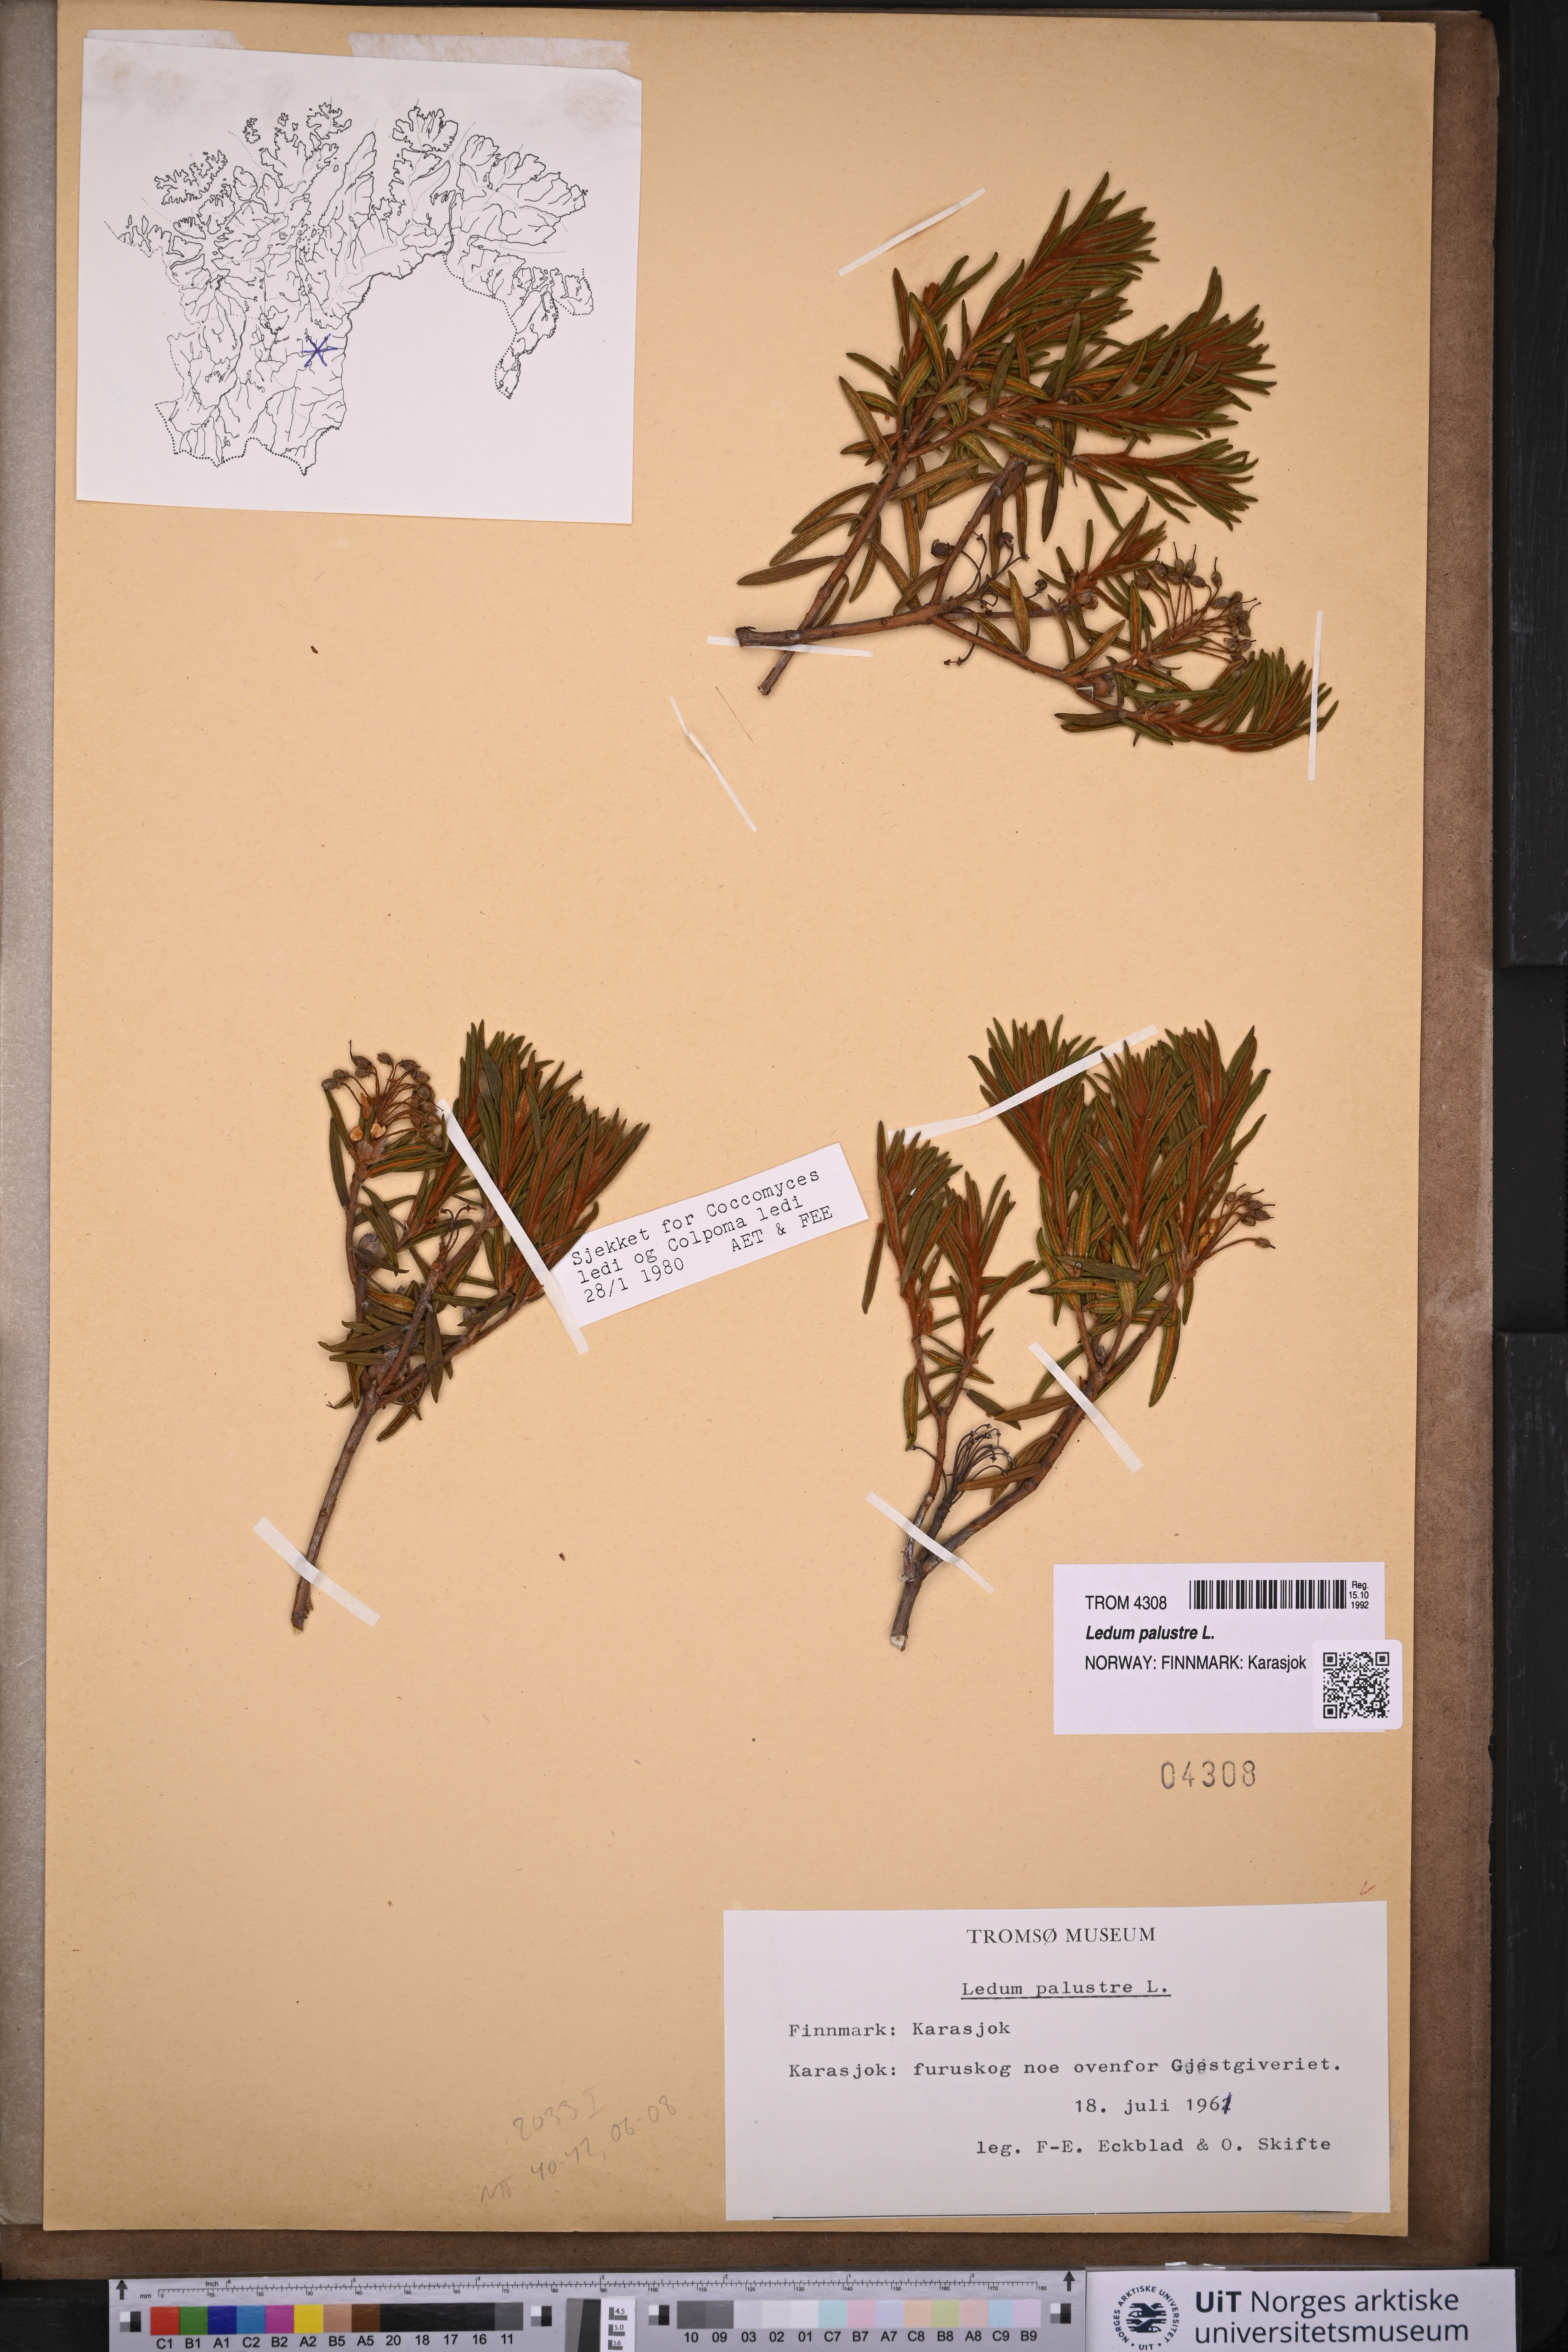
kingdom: Plantae
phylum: Tracheophyta
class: Magnoliopsida
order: Ericales
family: Ericaceae
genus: Rhododendron
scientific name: Rhododendron tomentosum
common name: Marsh labrador tea
